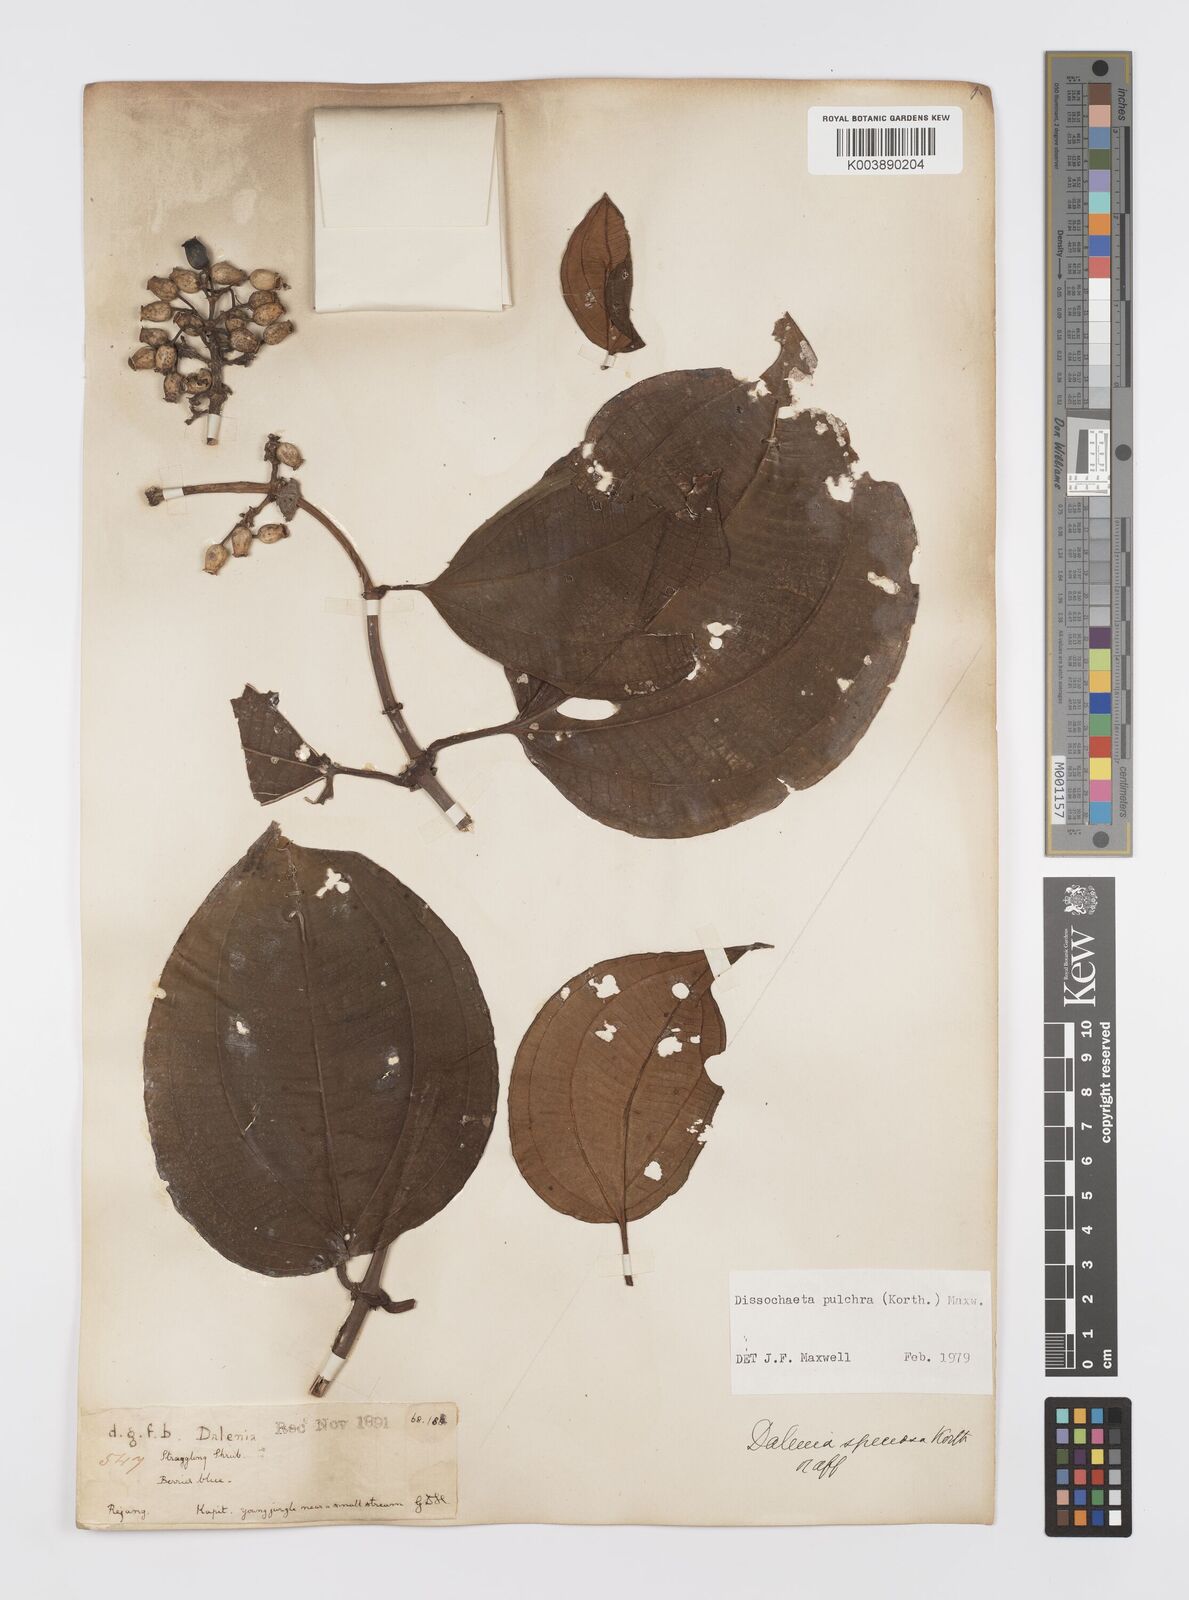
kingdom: Plantae
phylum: Tracheophyta
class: Magnoliopsida
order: Myrtales
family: Melastomataceae
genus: Dalenia
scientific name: Dalenia pulchra
